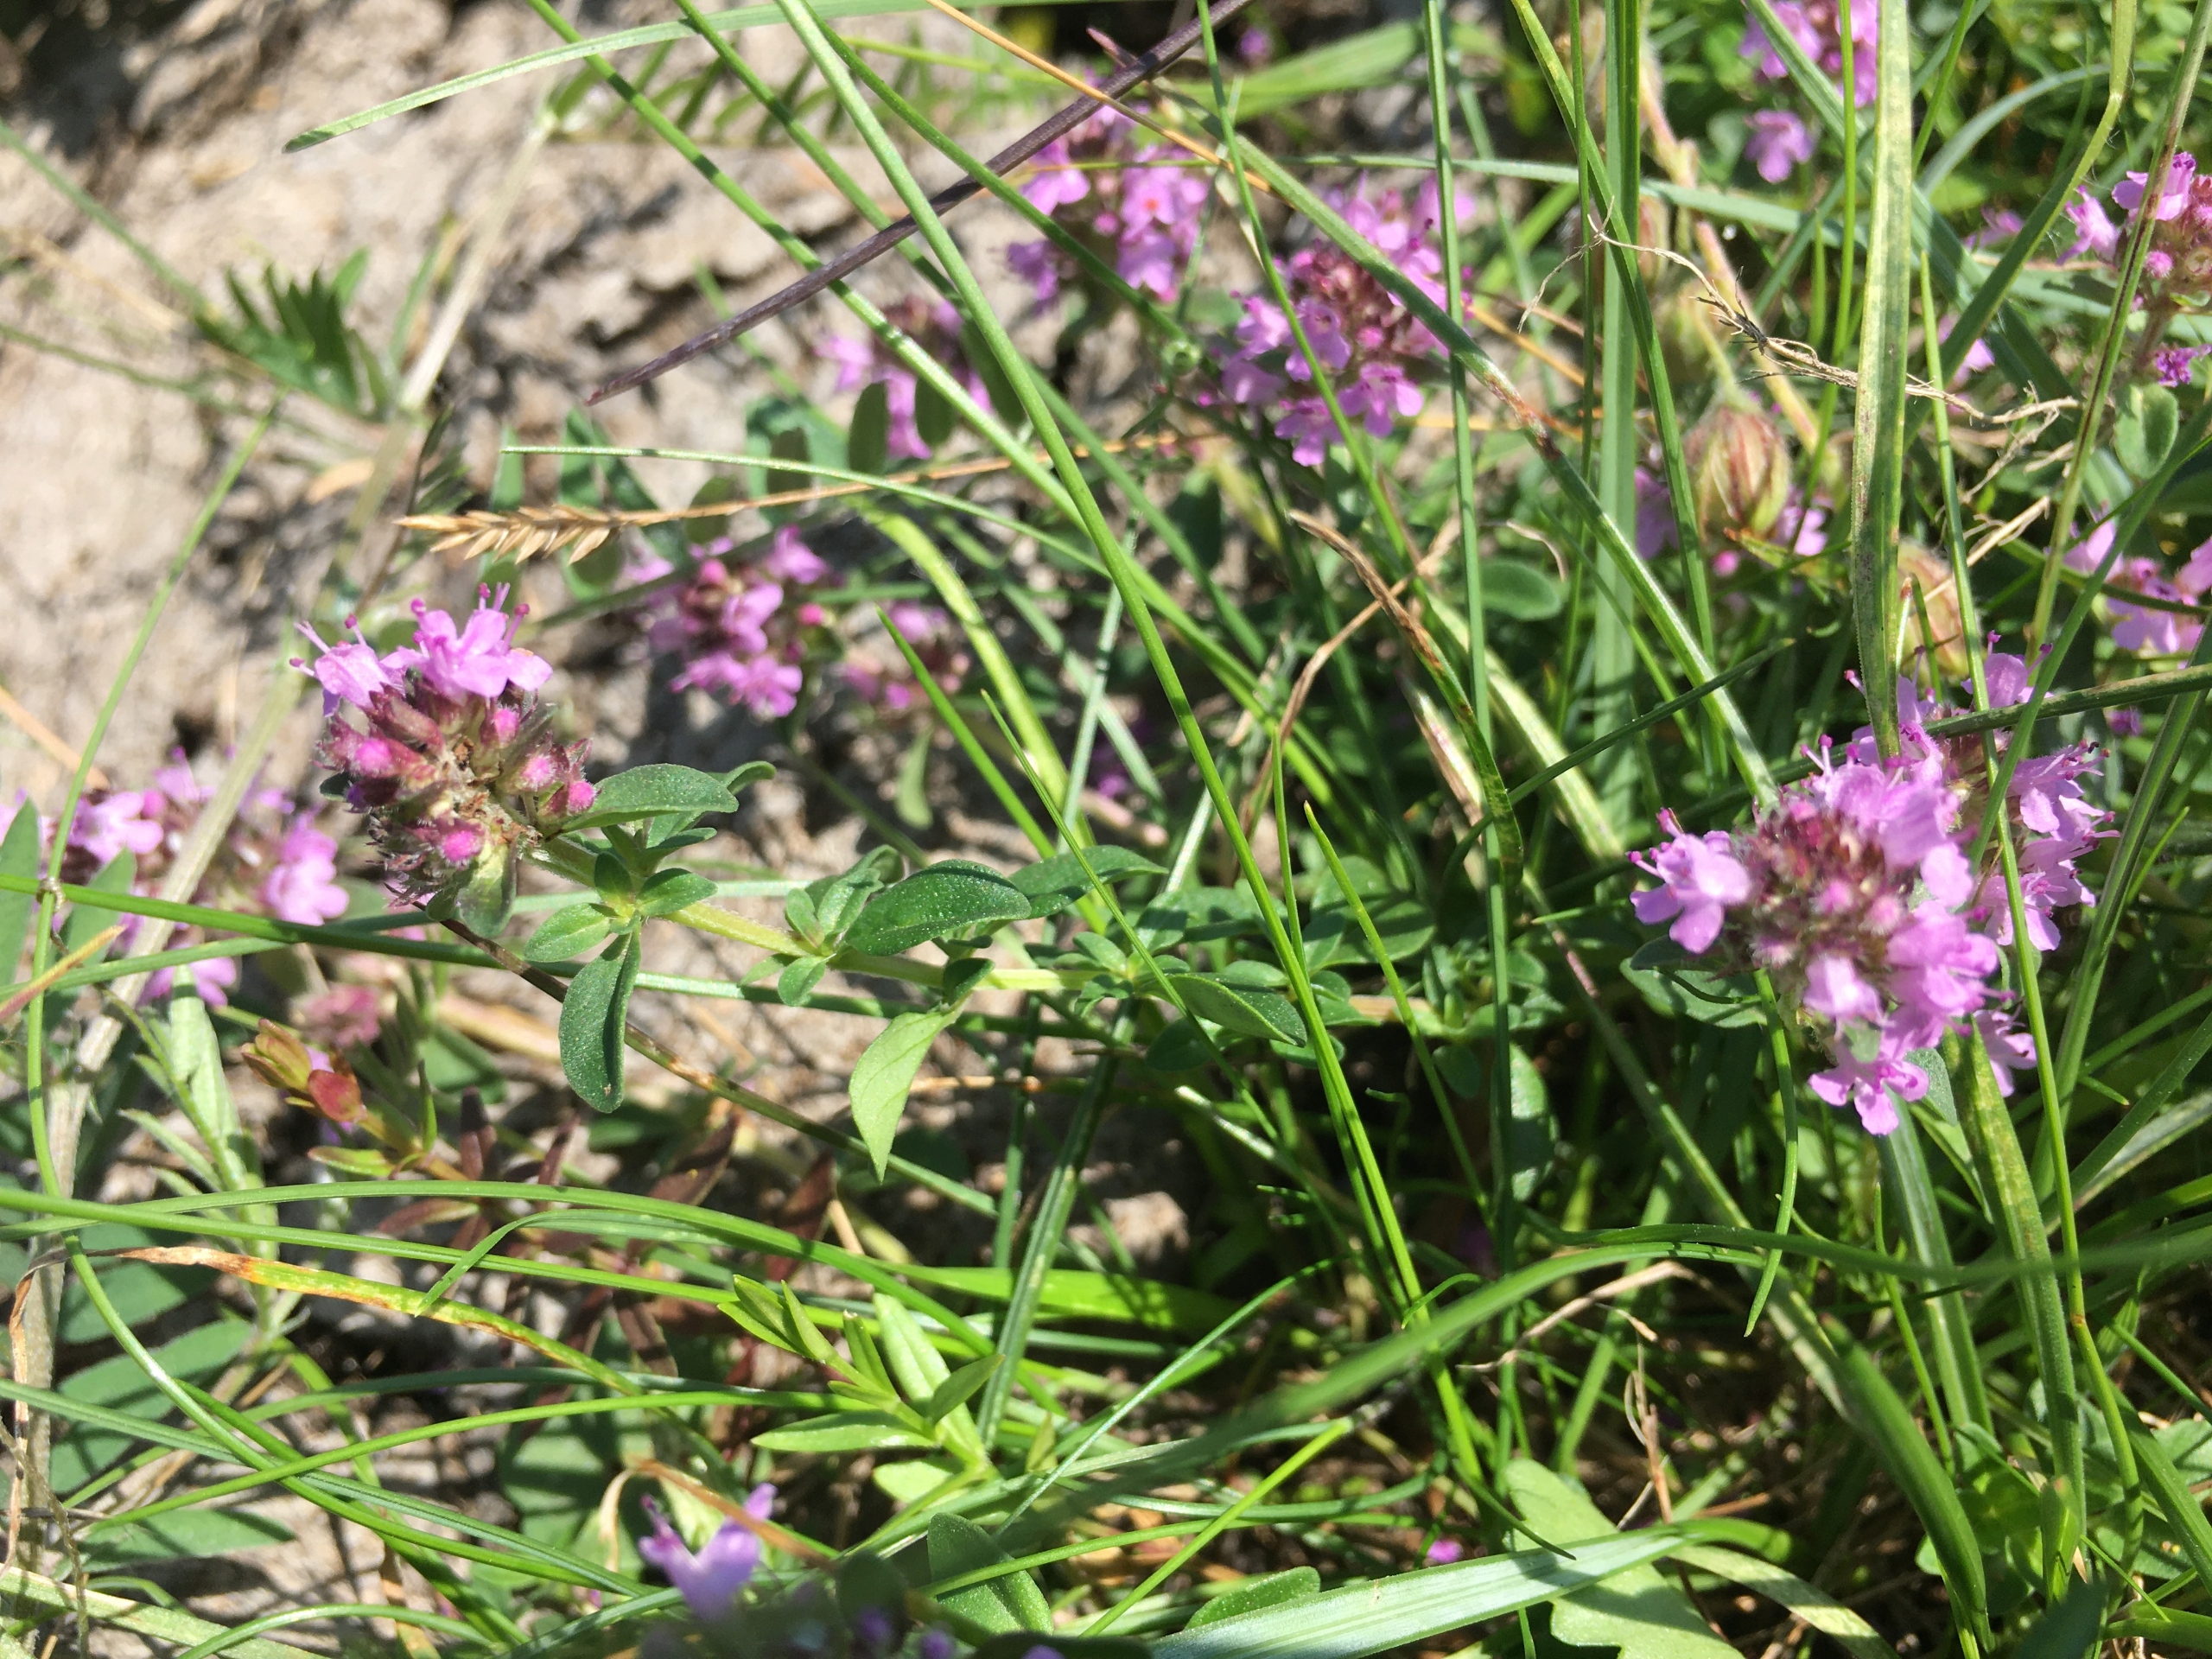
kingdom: Plantae
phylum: Tracheophyta
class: Magnoliopsida
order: Lamiales
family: Lamiaceae
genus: Thymus
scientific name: Thymus pulegioides
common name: Bredbladet timian
